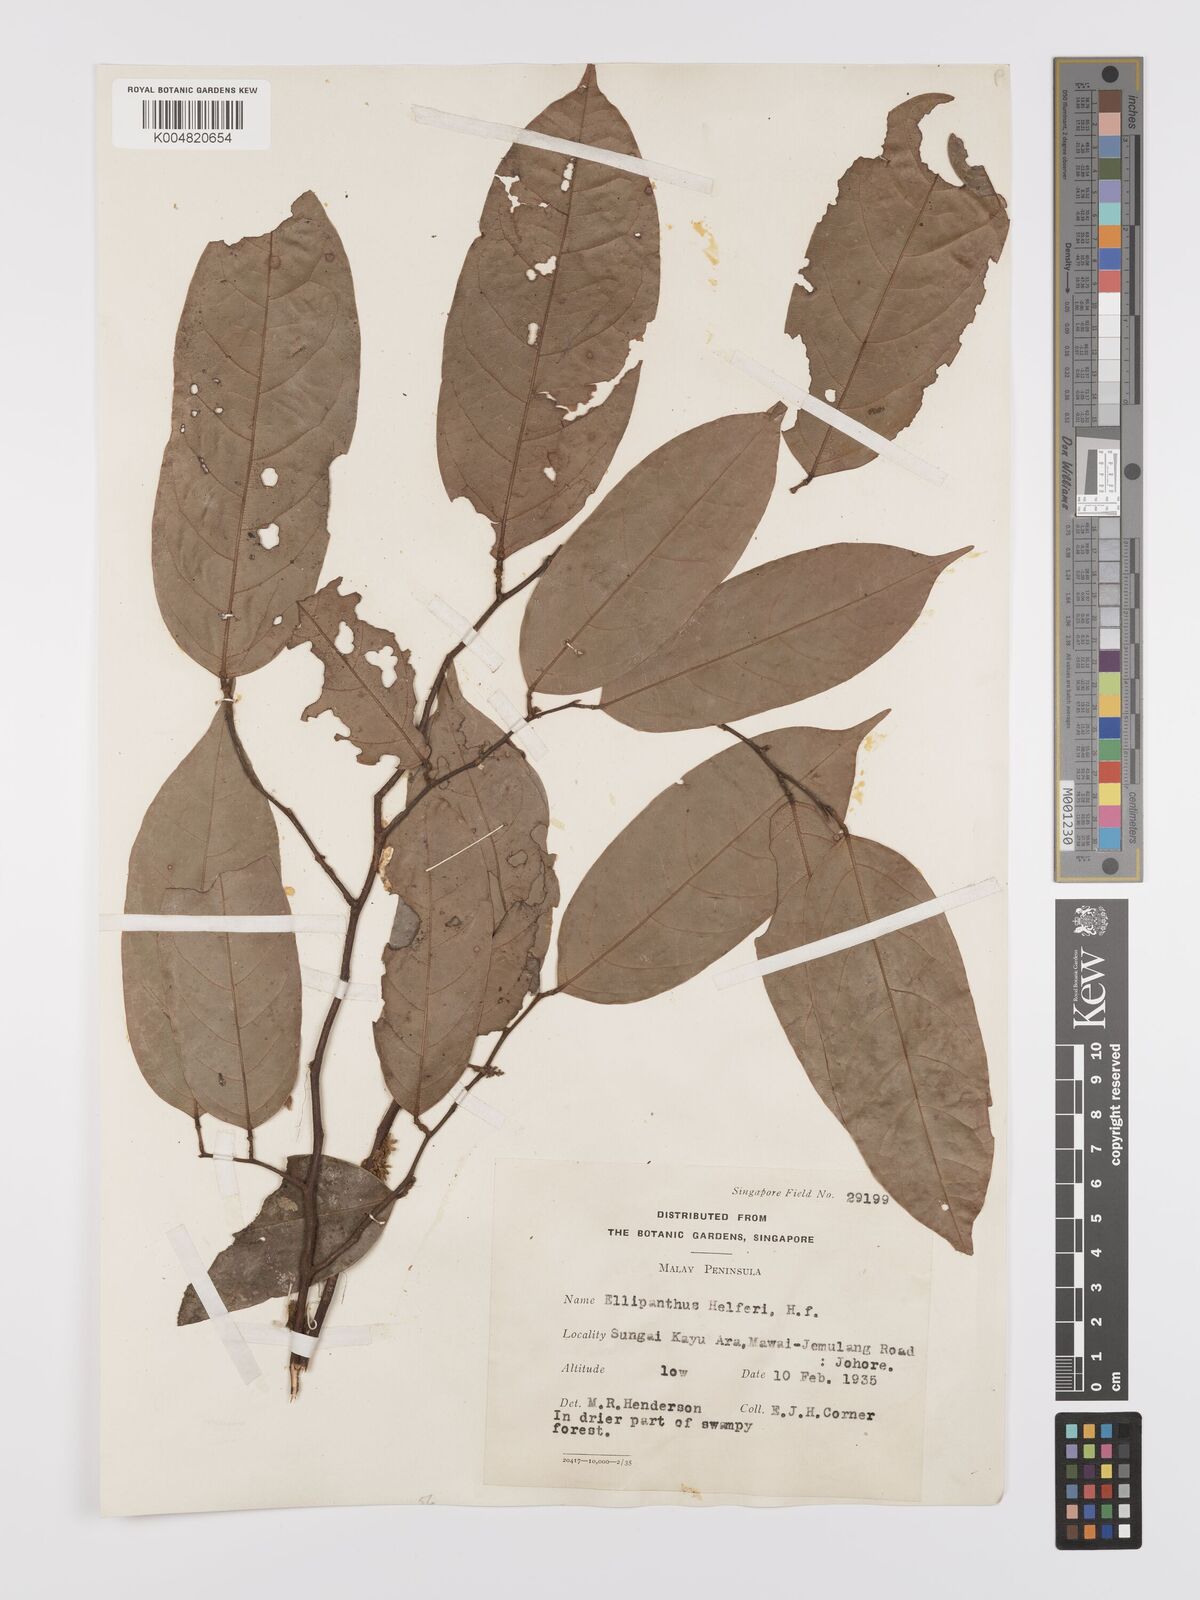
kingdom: Plantae
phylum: Tracheophyta
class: Magnoliopsida
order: Oxalidales
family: Connaraceae
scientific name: Connaraceae
